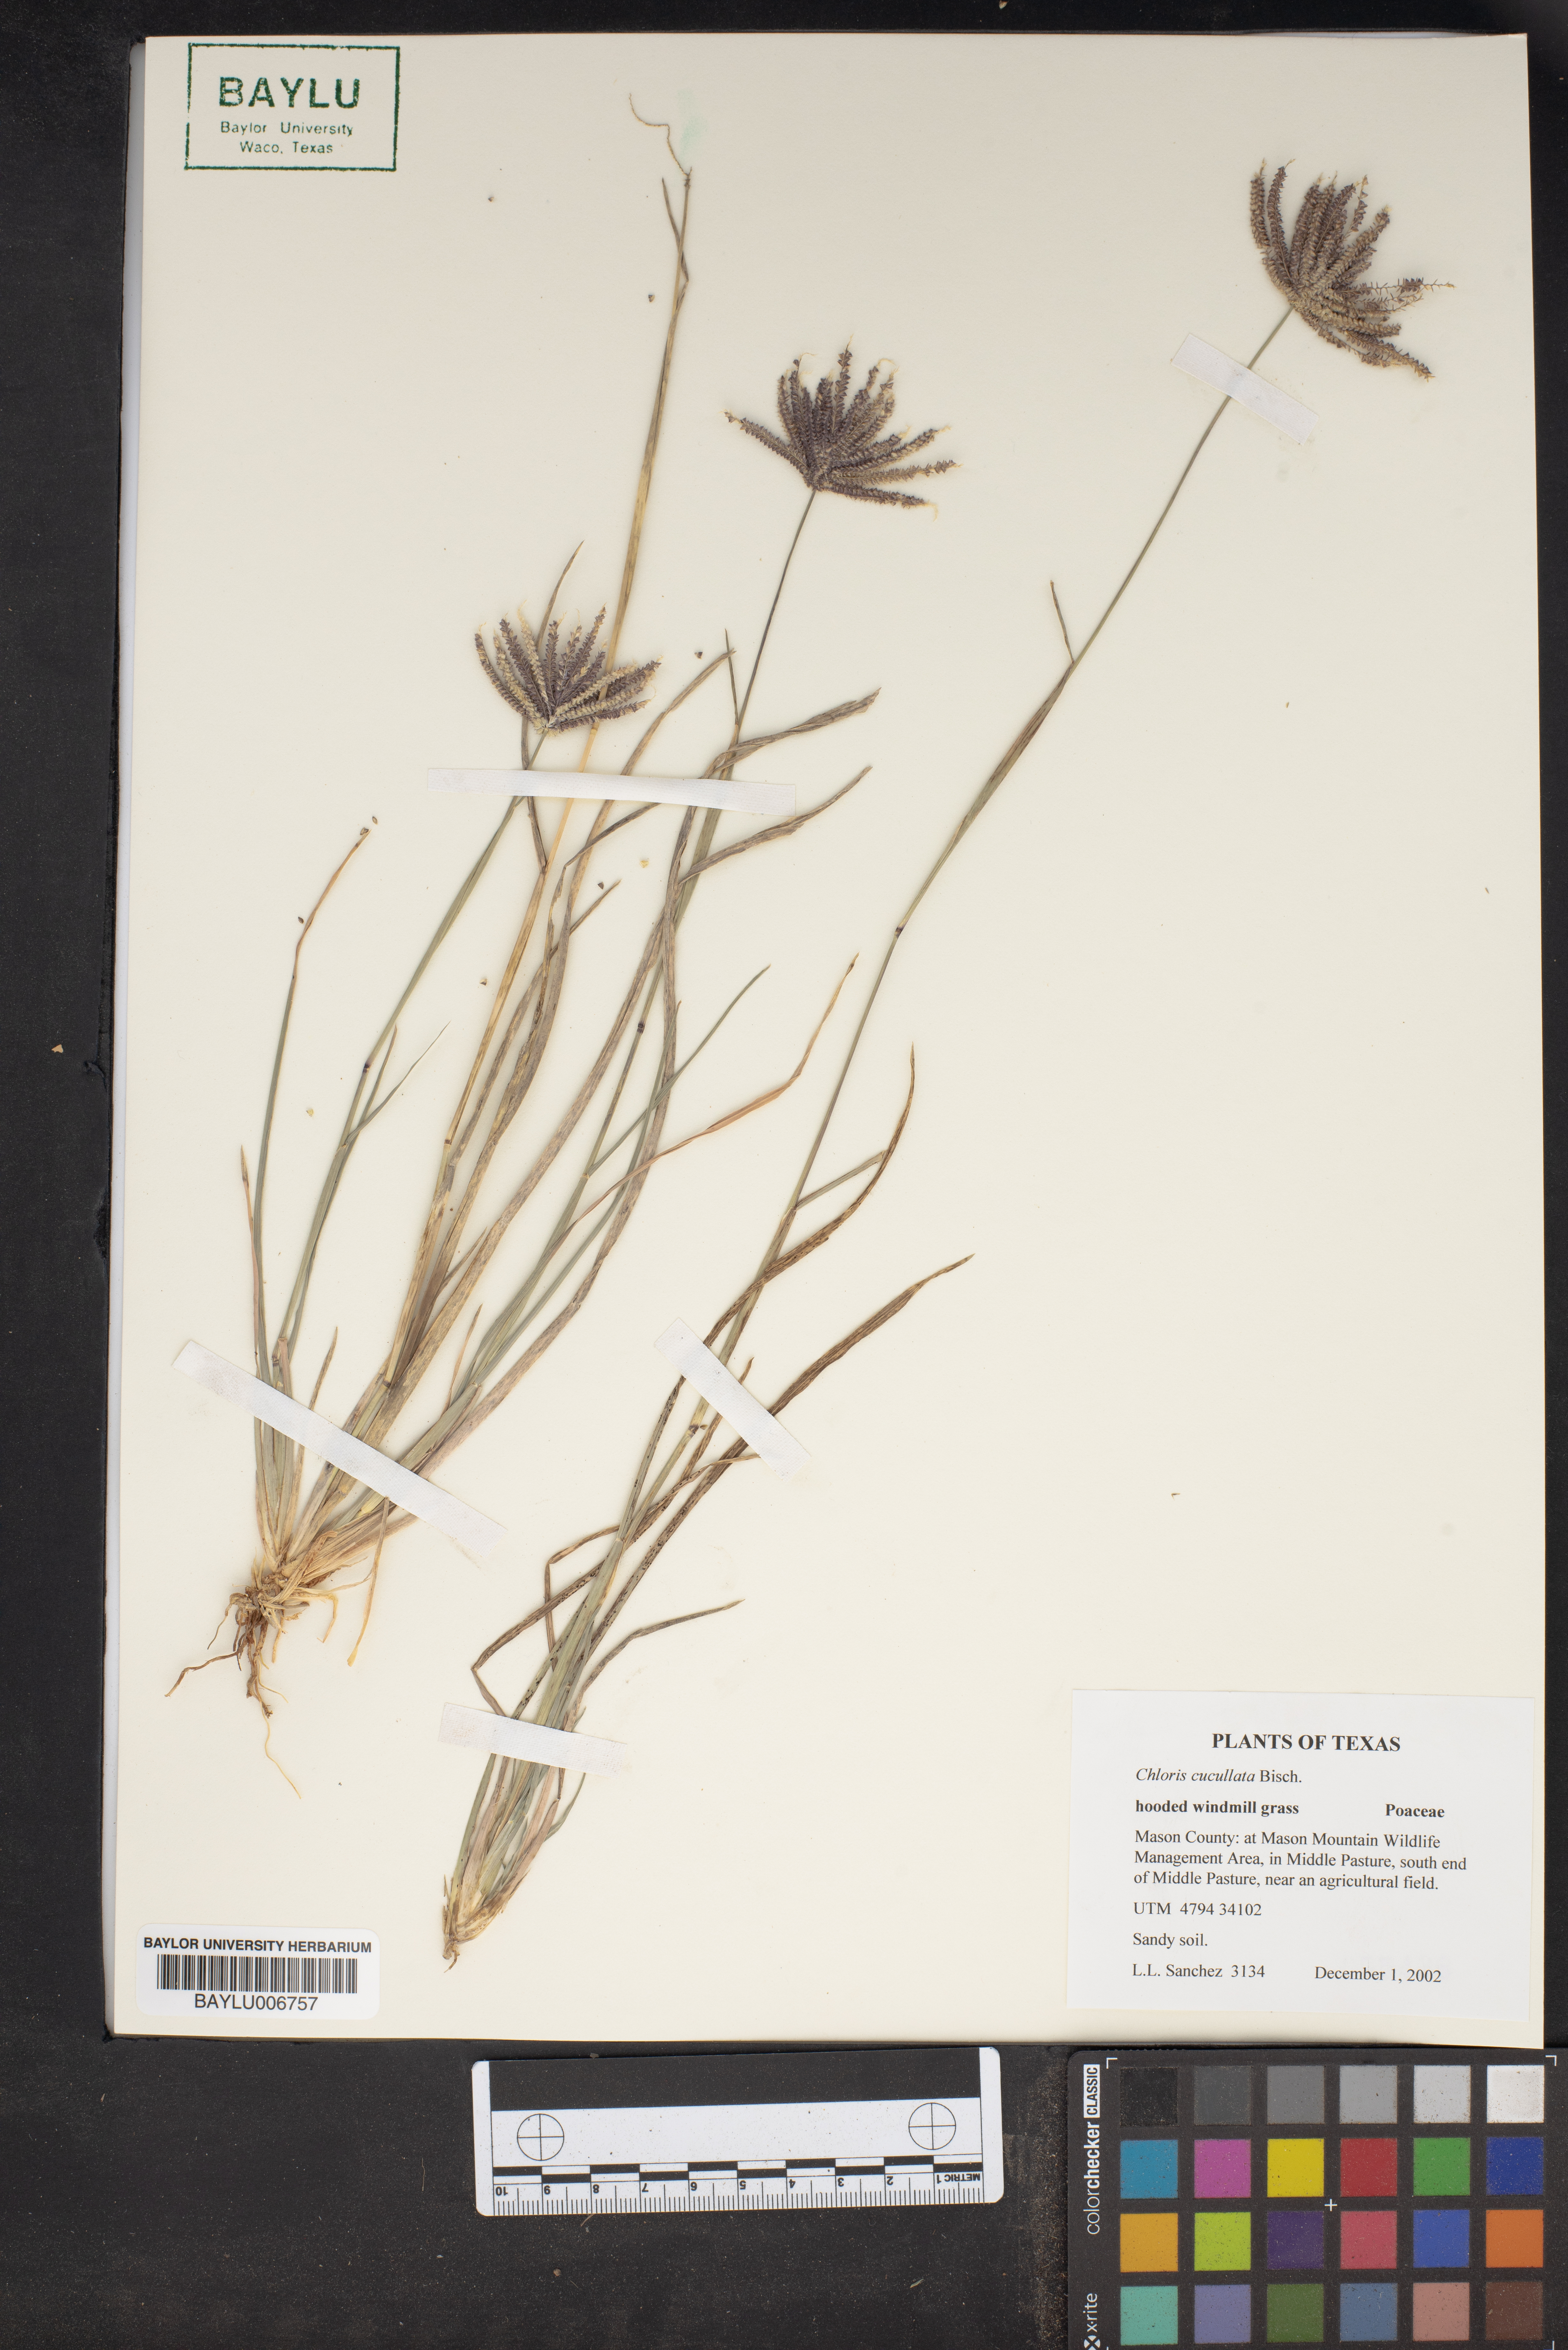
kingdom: Plantae
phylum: Tracheophyta
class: Liliopsida
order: Poales
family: Poaceae
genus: Chloris
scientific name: Chloris cucullata
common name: Hooded windmill grass
